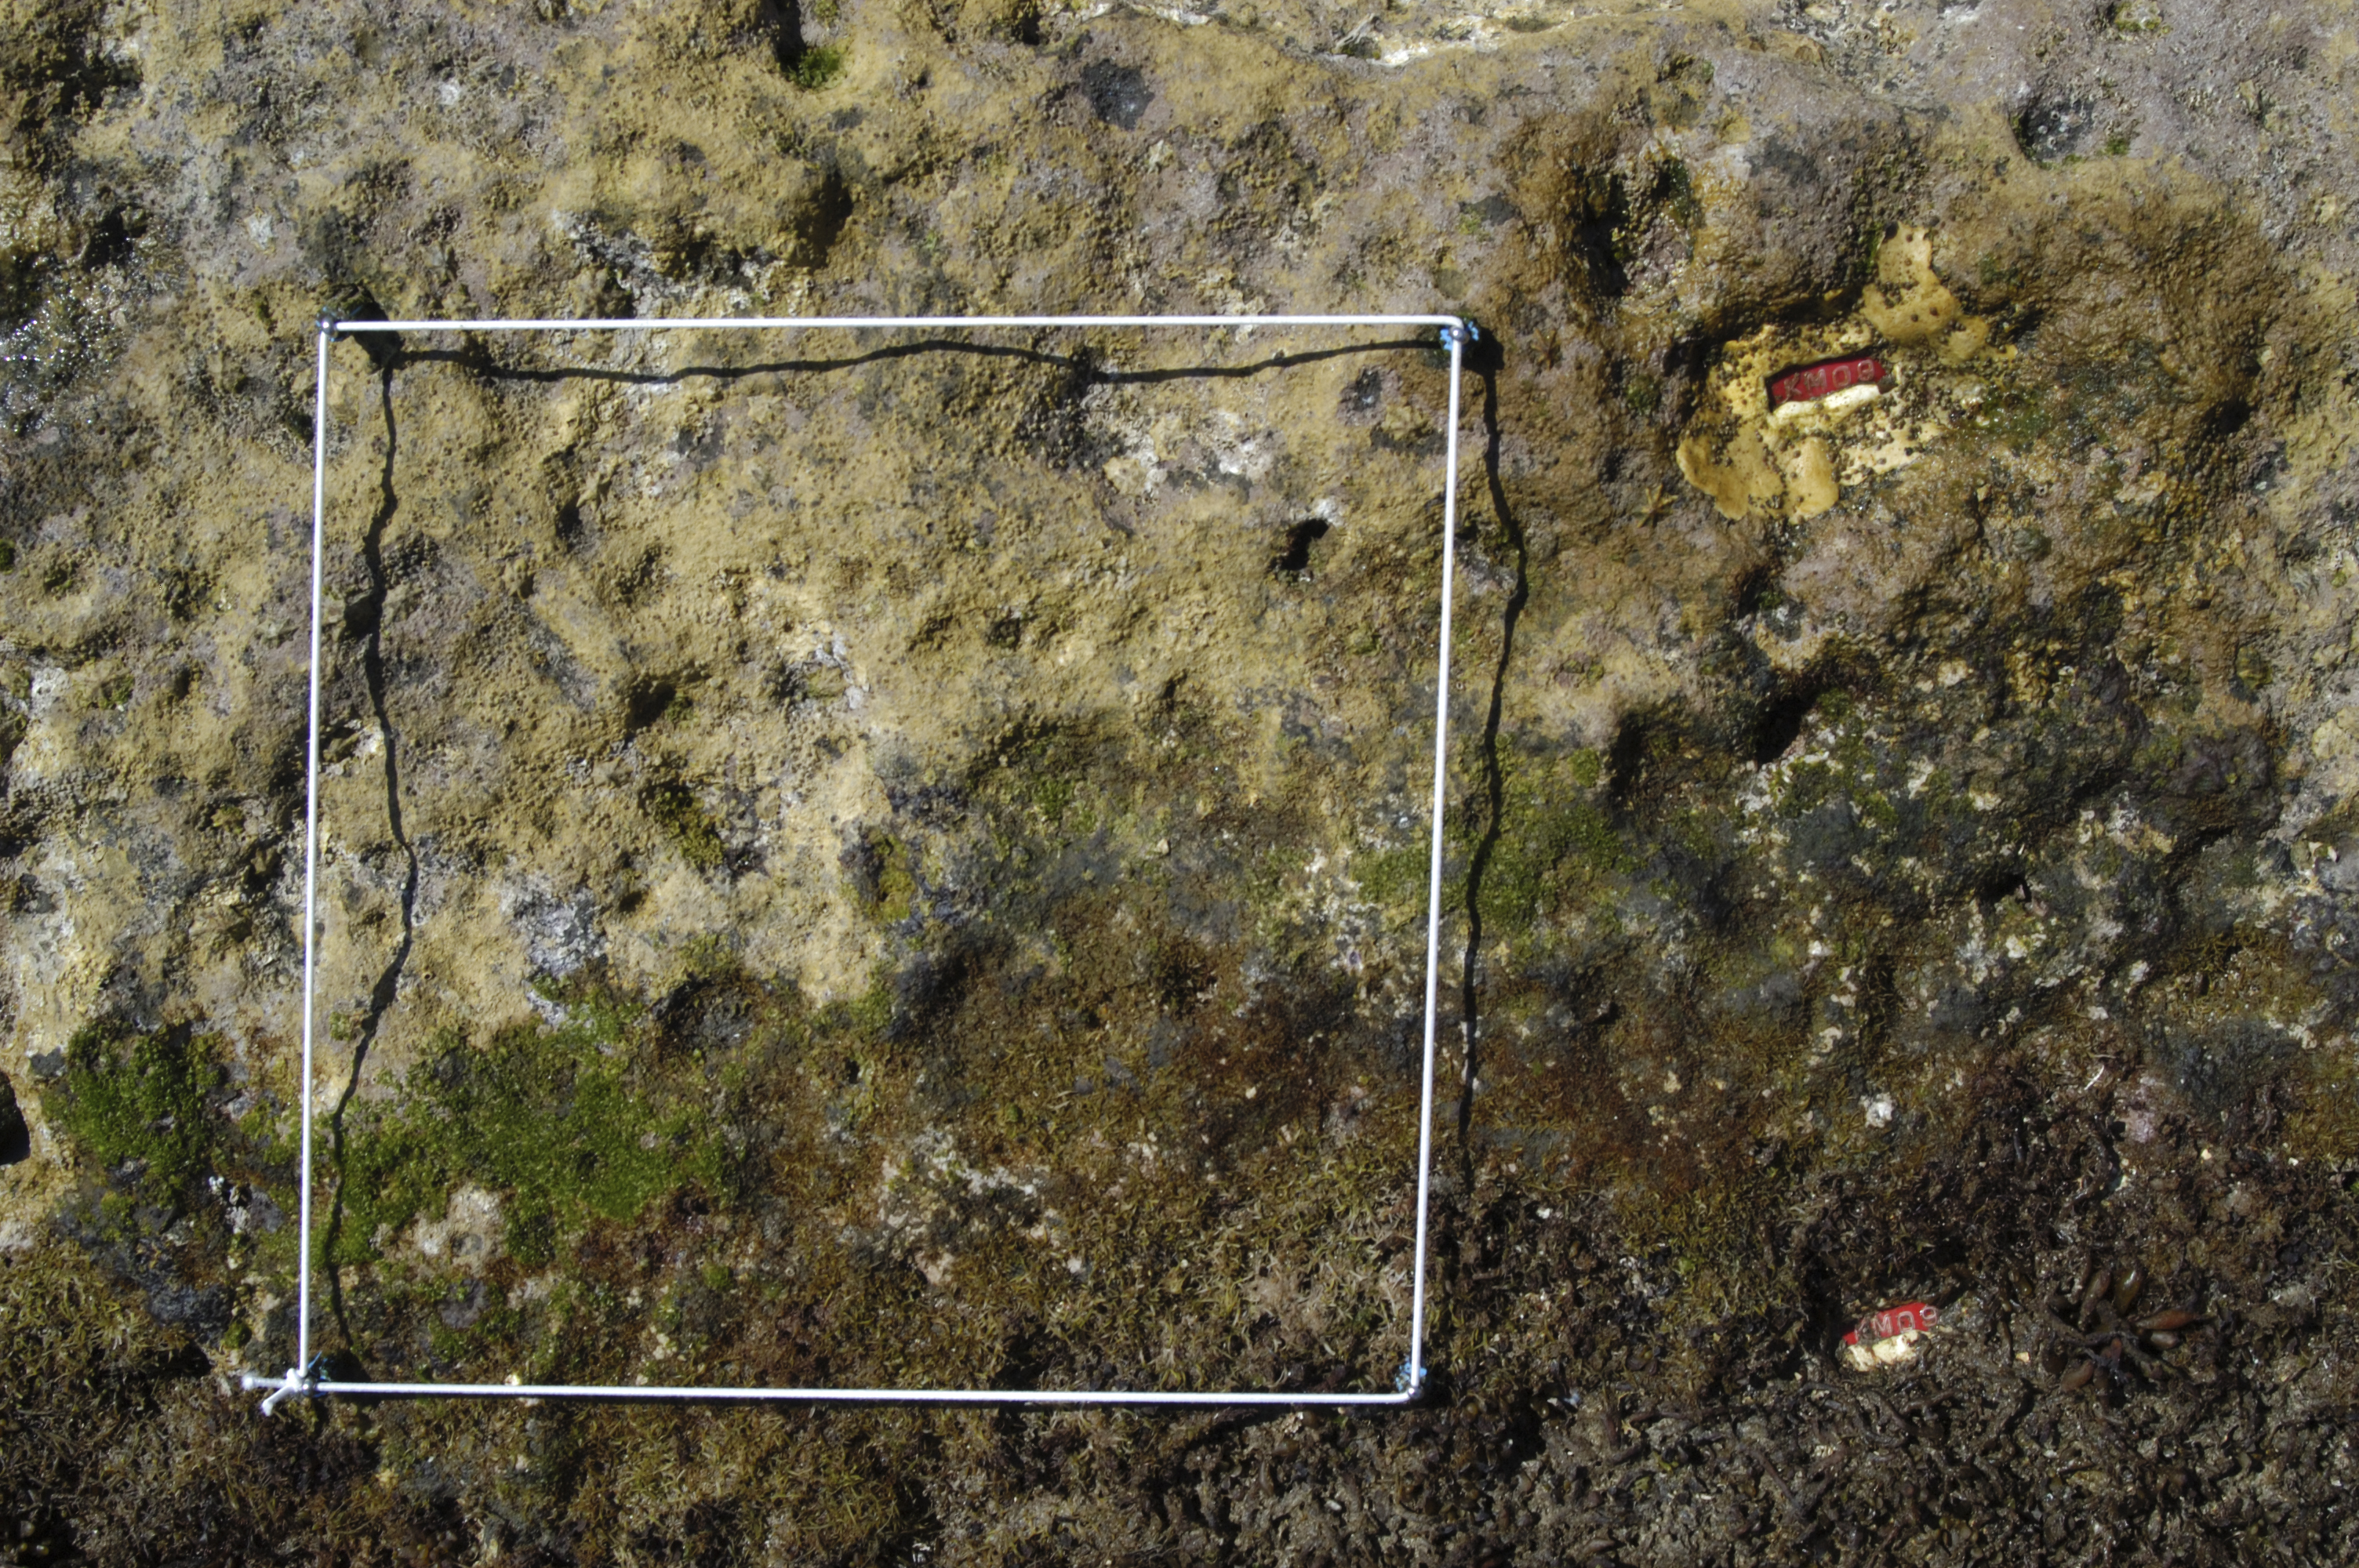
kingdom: Animalia
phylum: Arthropoda
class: Maxillopoda
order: Sessilia
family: Chthamalidae
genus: Chthamalus
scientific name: Chthamalus challengeri
